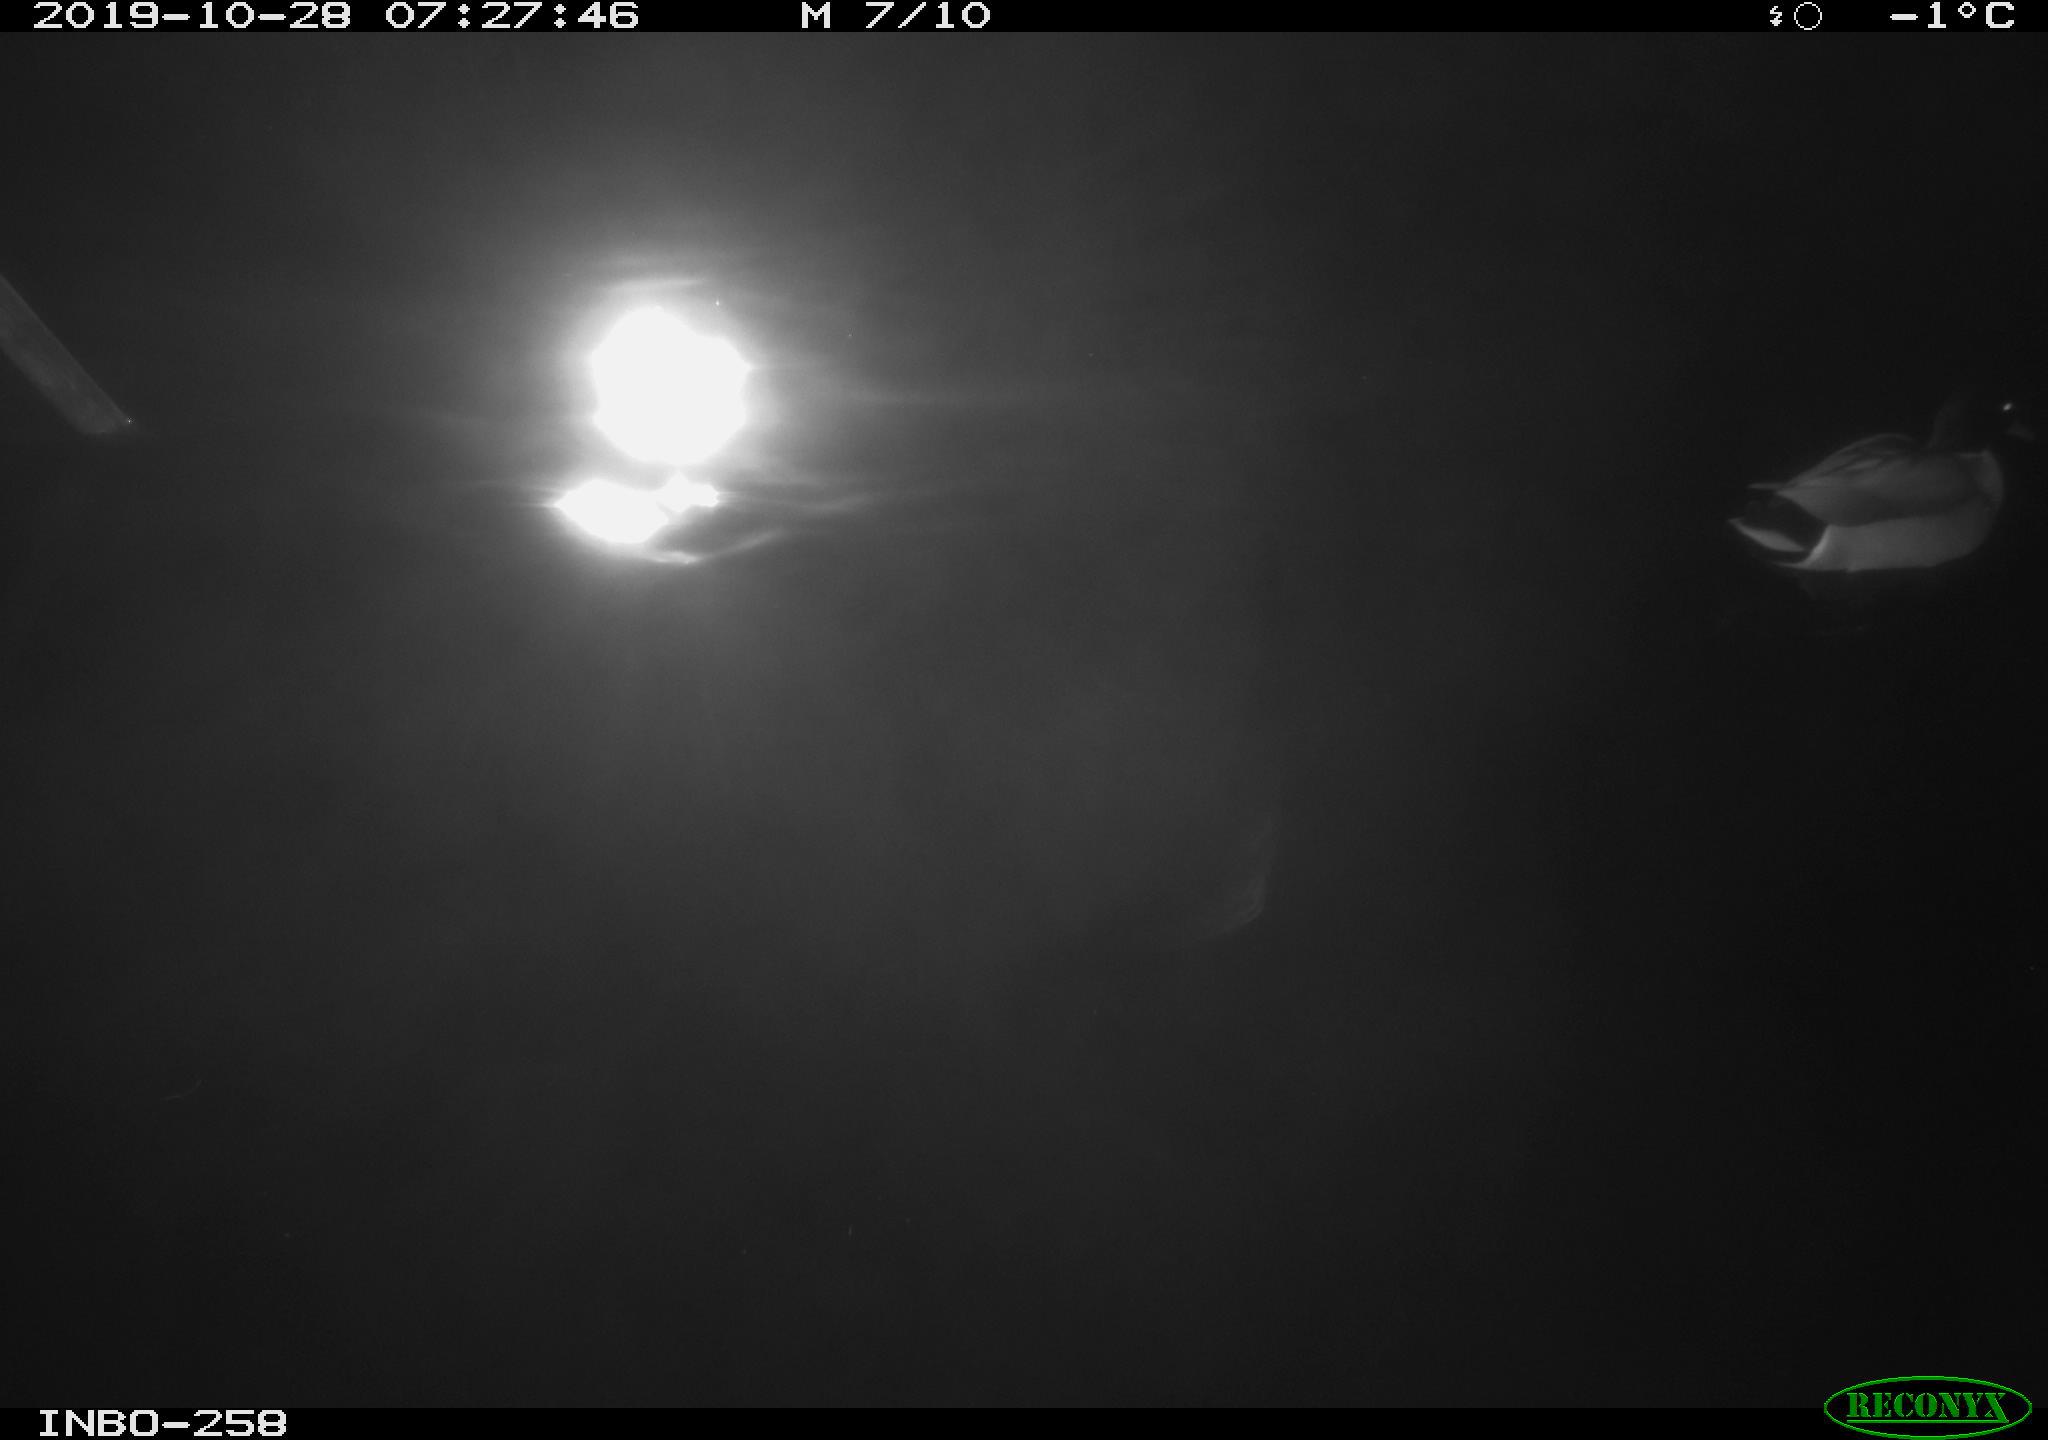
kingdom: Animalia
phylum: Chordata
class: Aves
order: Anseriformes
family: Anatidae
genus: Anas
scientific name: Anas platyrhynchos
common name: Mallard
